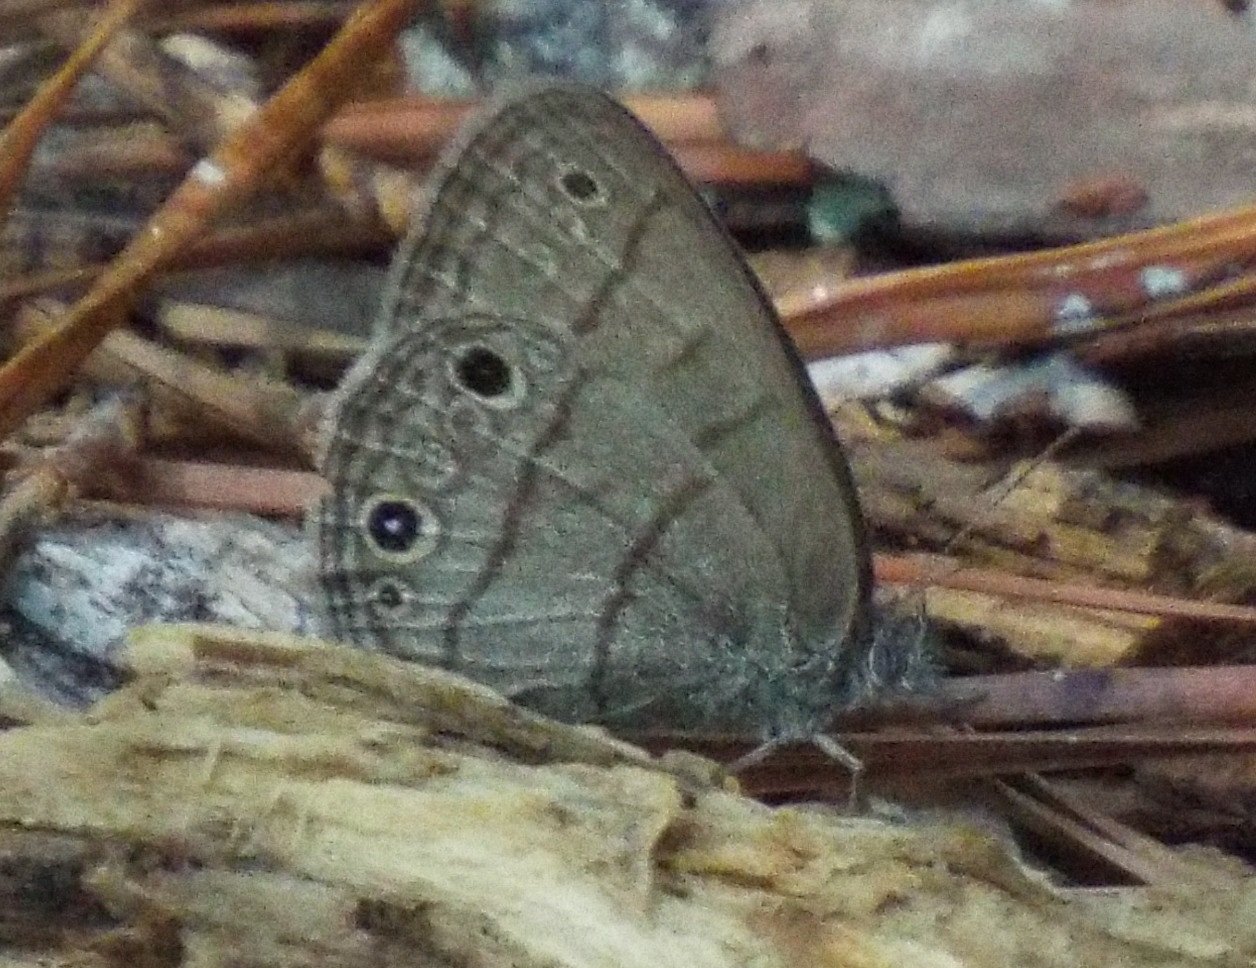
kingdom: Animalia
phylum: Arthropoda
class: Insecta
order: Lepidoptera
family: Nymphalidae
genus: Hermeuptychia
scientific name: Hermeuptychia
